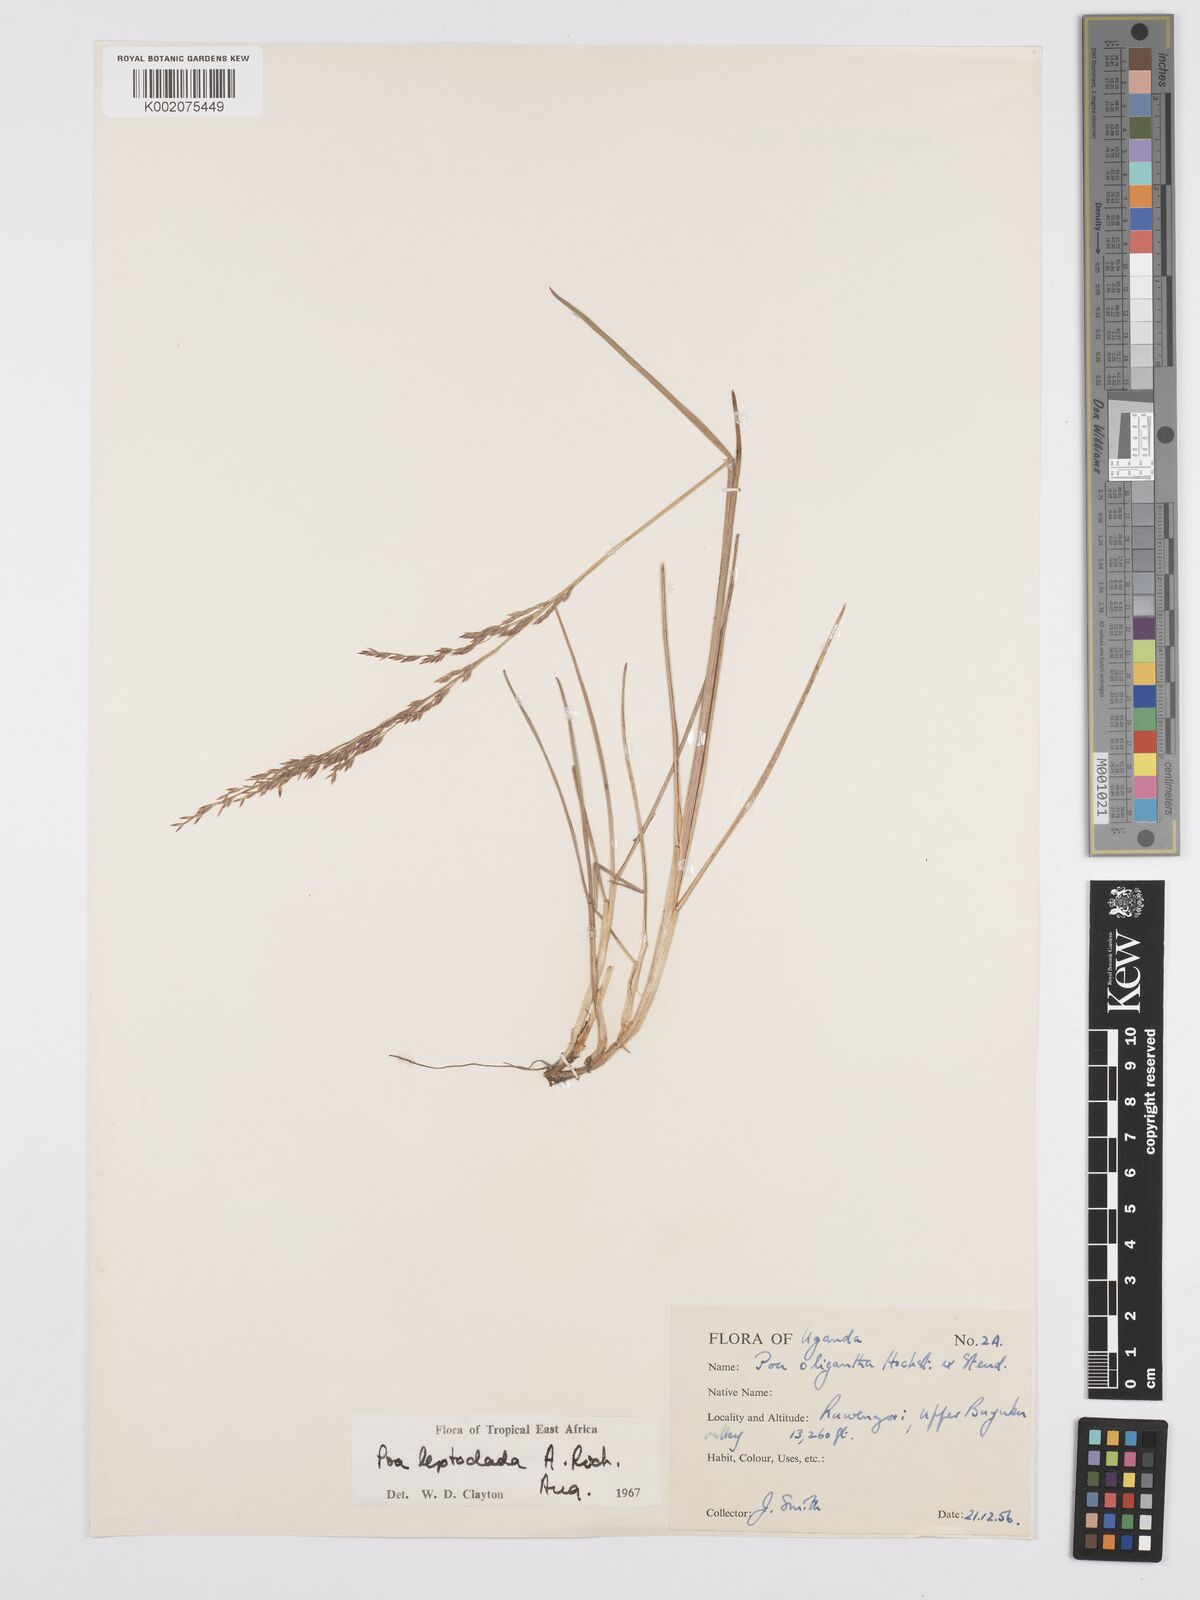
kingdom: Plantae
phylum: Tracheophyta
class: Liliopsida
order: Poales
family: Poaceae
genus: Poa
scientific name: Poa
